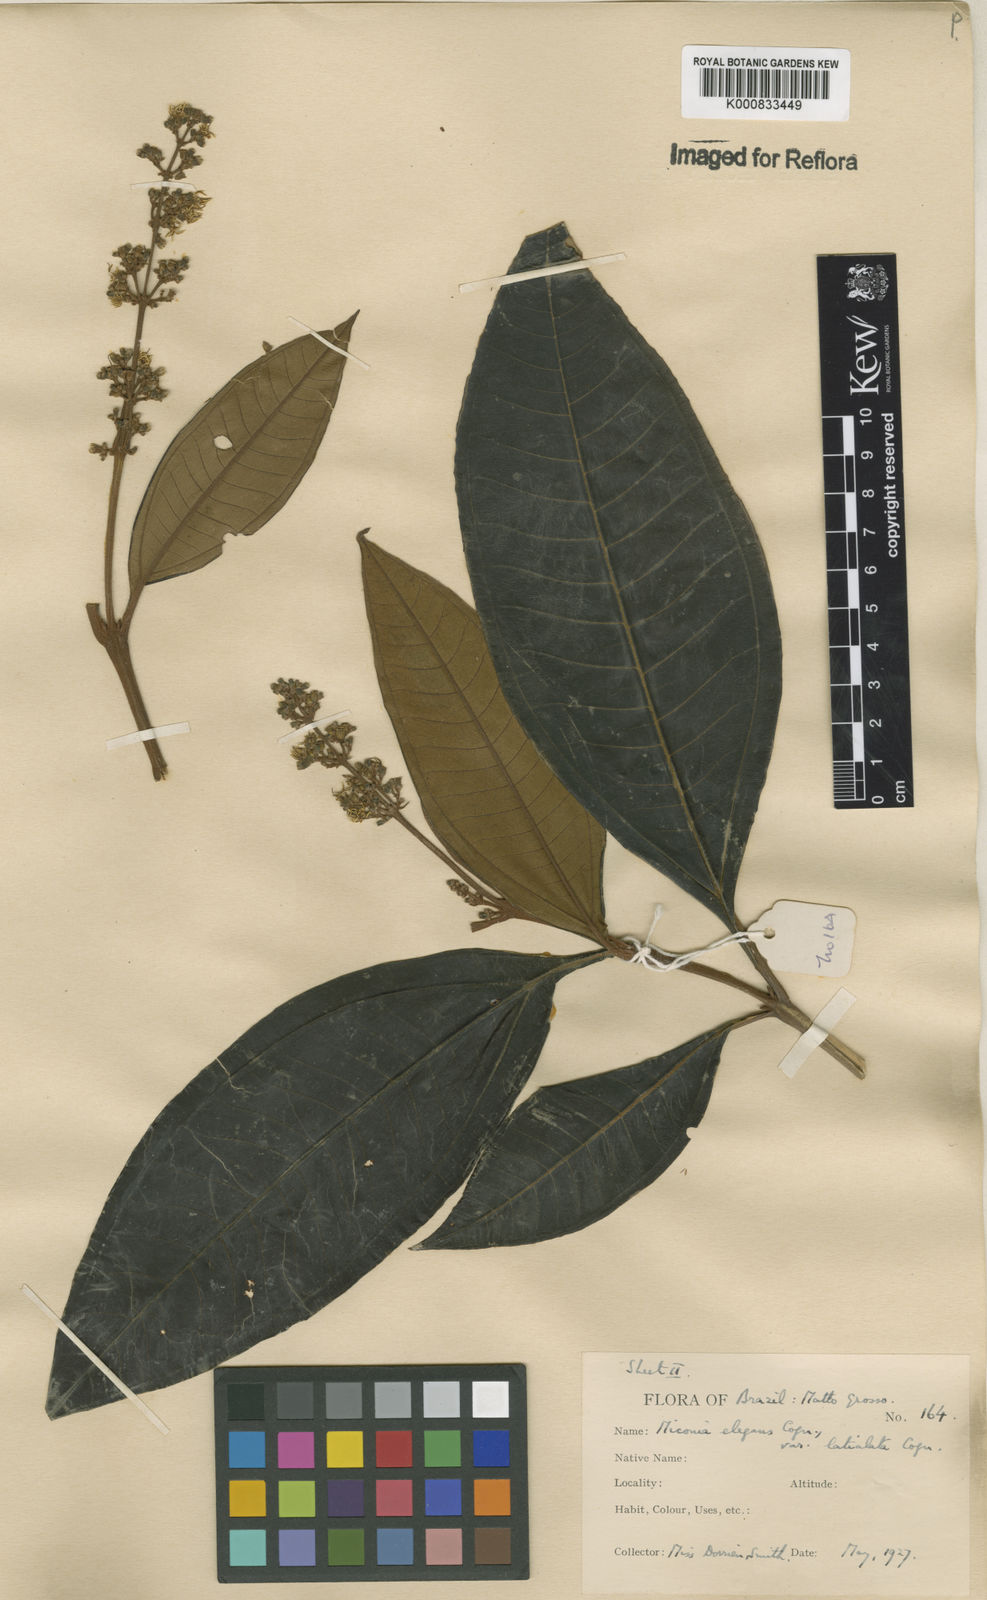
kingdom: Plantae
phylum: Tracheophyta
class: Magnoliopsida
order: Myrtales
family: Melastomataceae
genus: Miconia
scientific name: Miconia elegans
